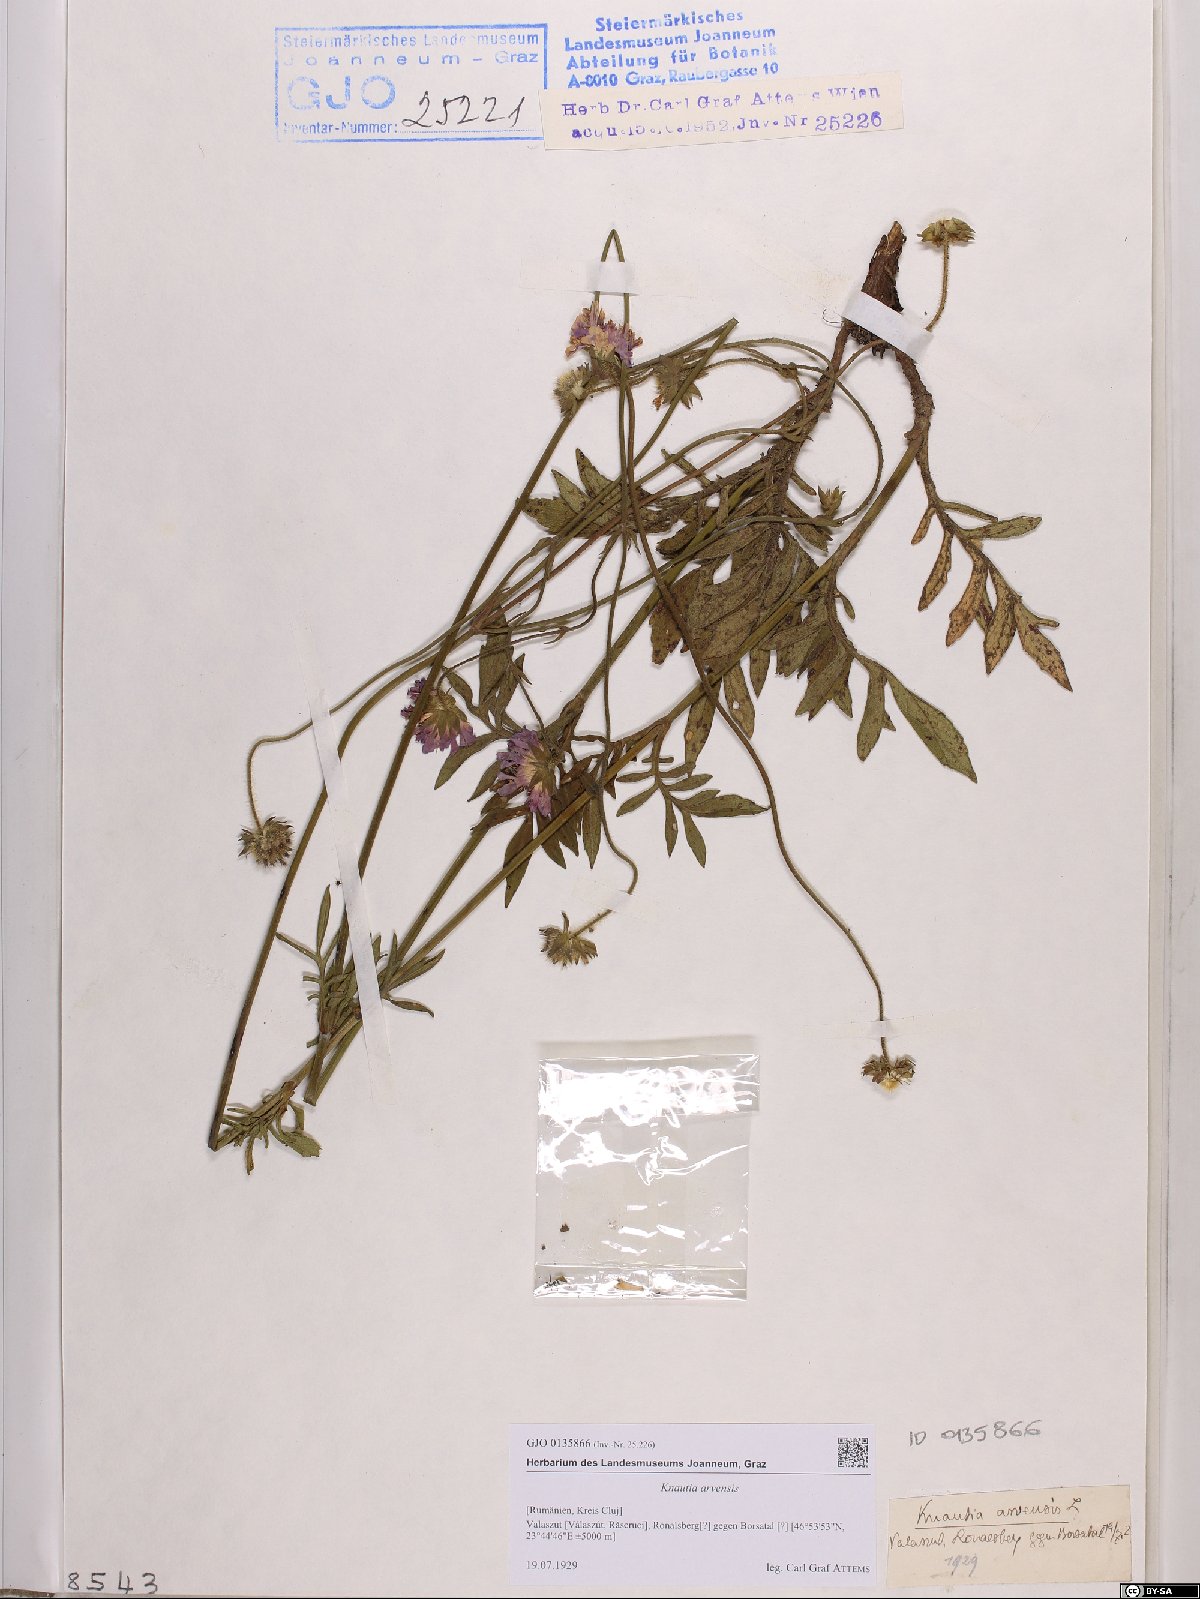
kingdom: Plantae
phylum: Tracheophyta
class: Magnoliopsida
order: Dipsacales
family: Caprifoliaceae
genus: Knautia
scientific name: Knautia arvensis
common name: Field scabiosa
